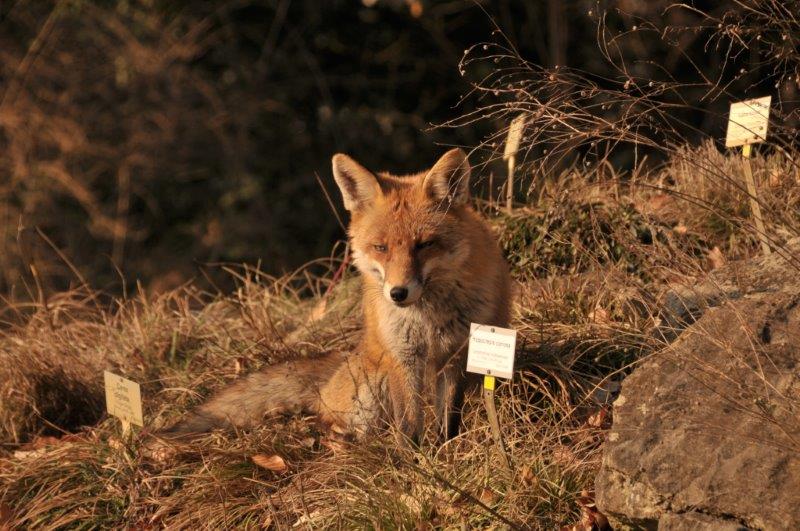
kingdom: Animalia
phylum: Chordata
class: Mammalia
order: Carnivora
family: Canidae
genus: Vulpes
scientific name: Vulpes vulpes
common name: Red fox
